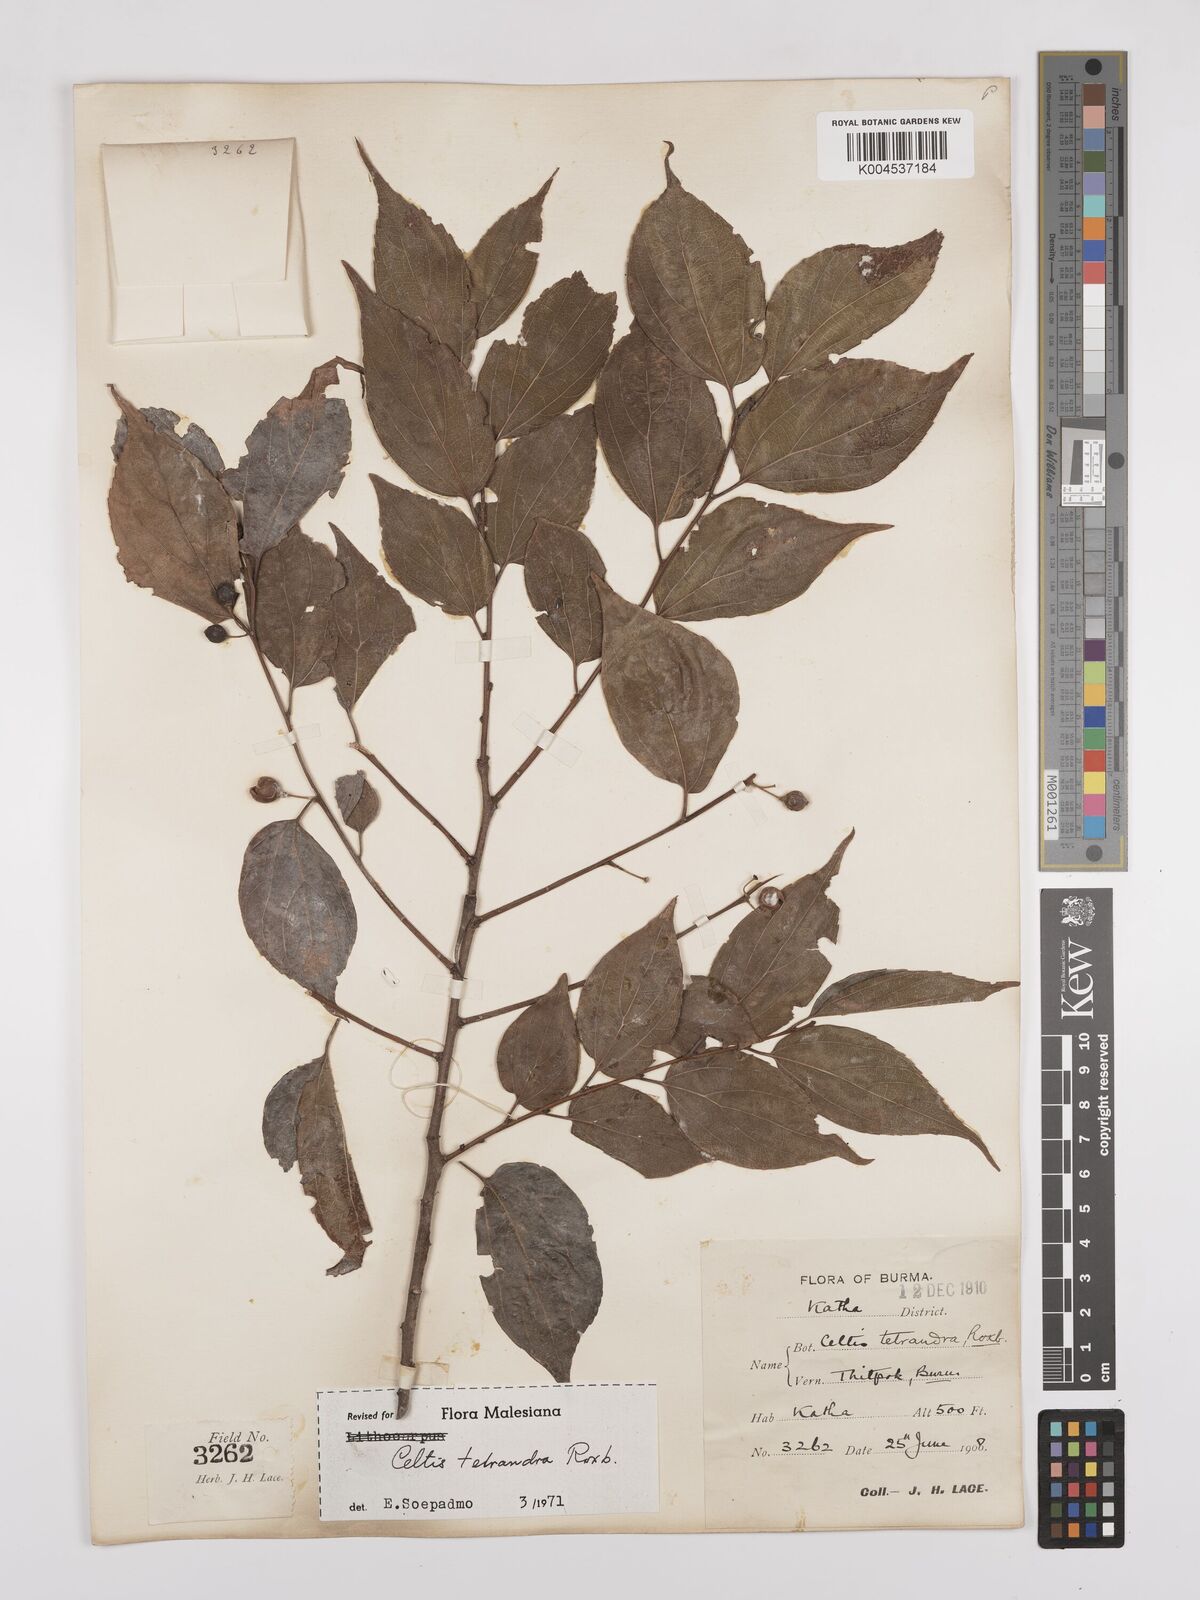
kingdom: Plantae
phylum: Tracheophyta
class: Magnoliopsida
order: Rosales
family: Cannabaceae
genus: Celtis
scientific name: Celtis tetrandra
